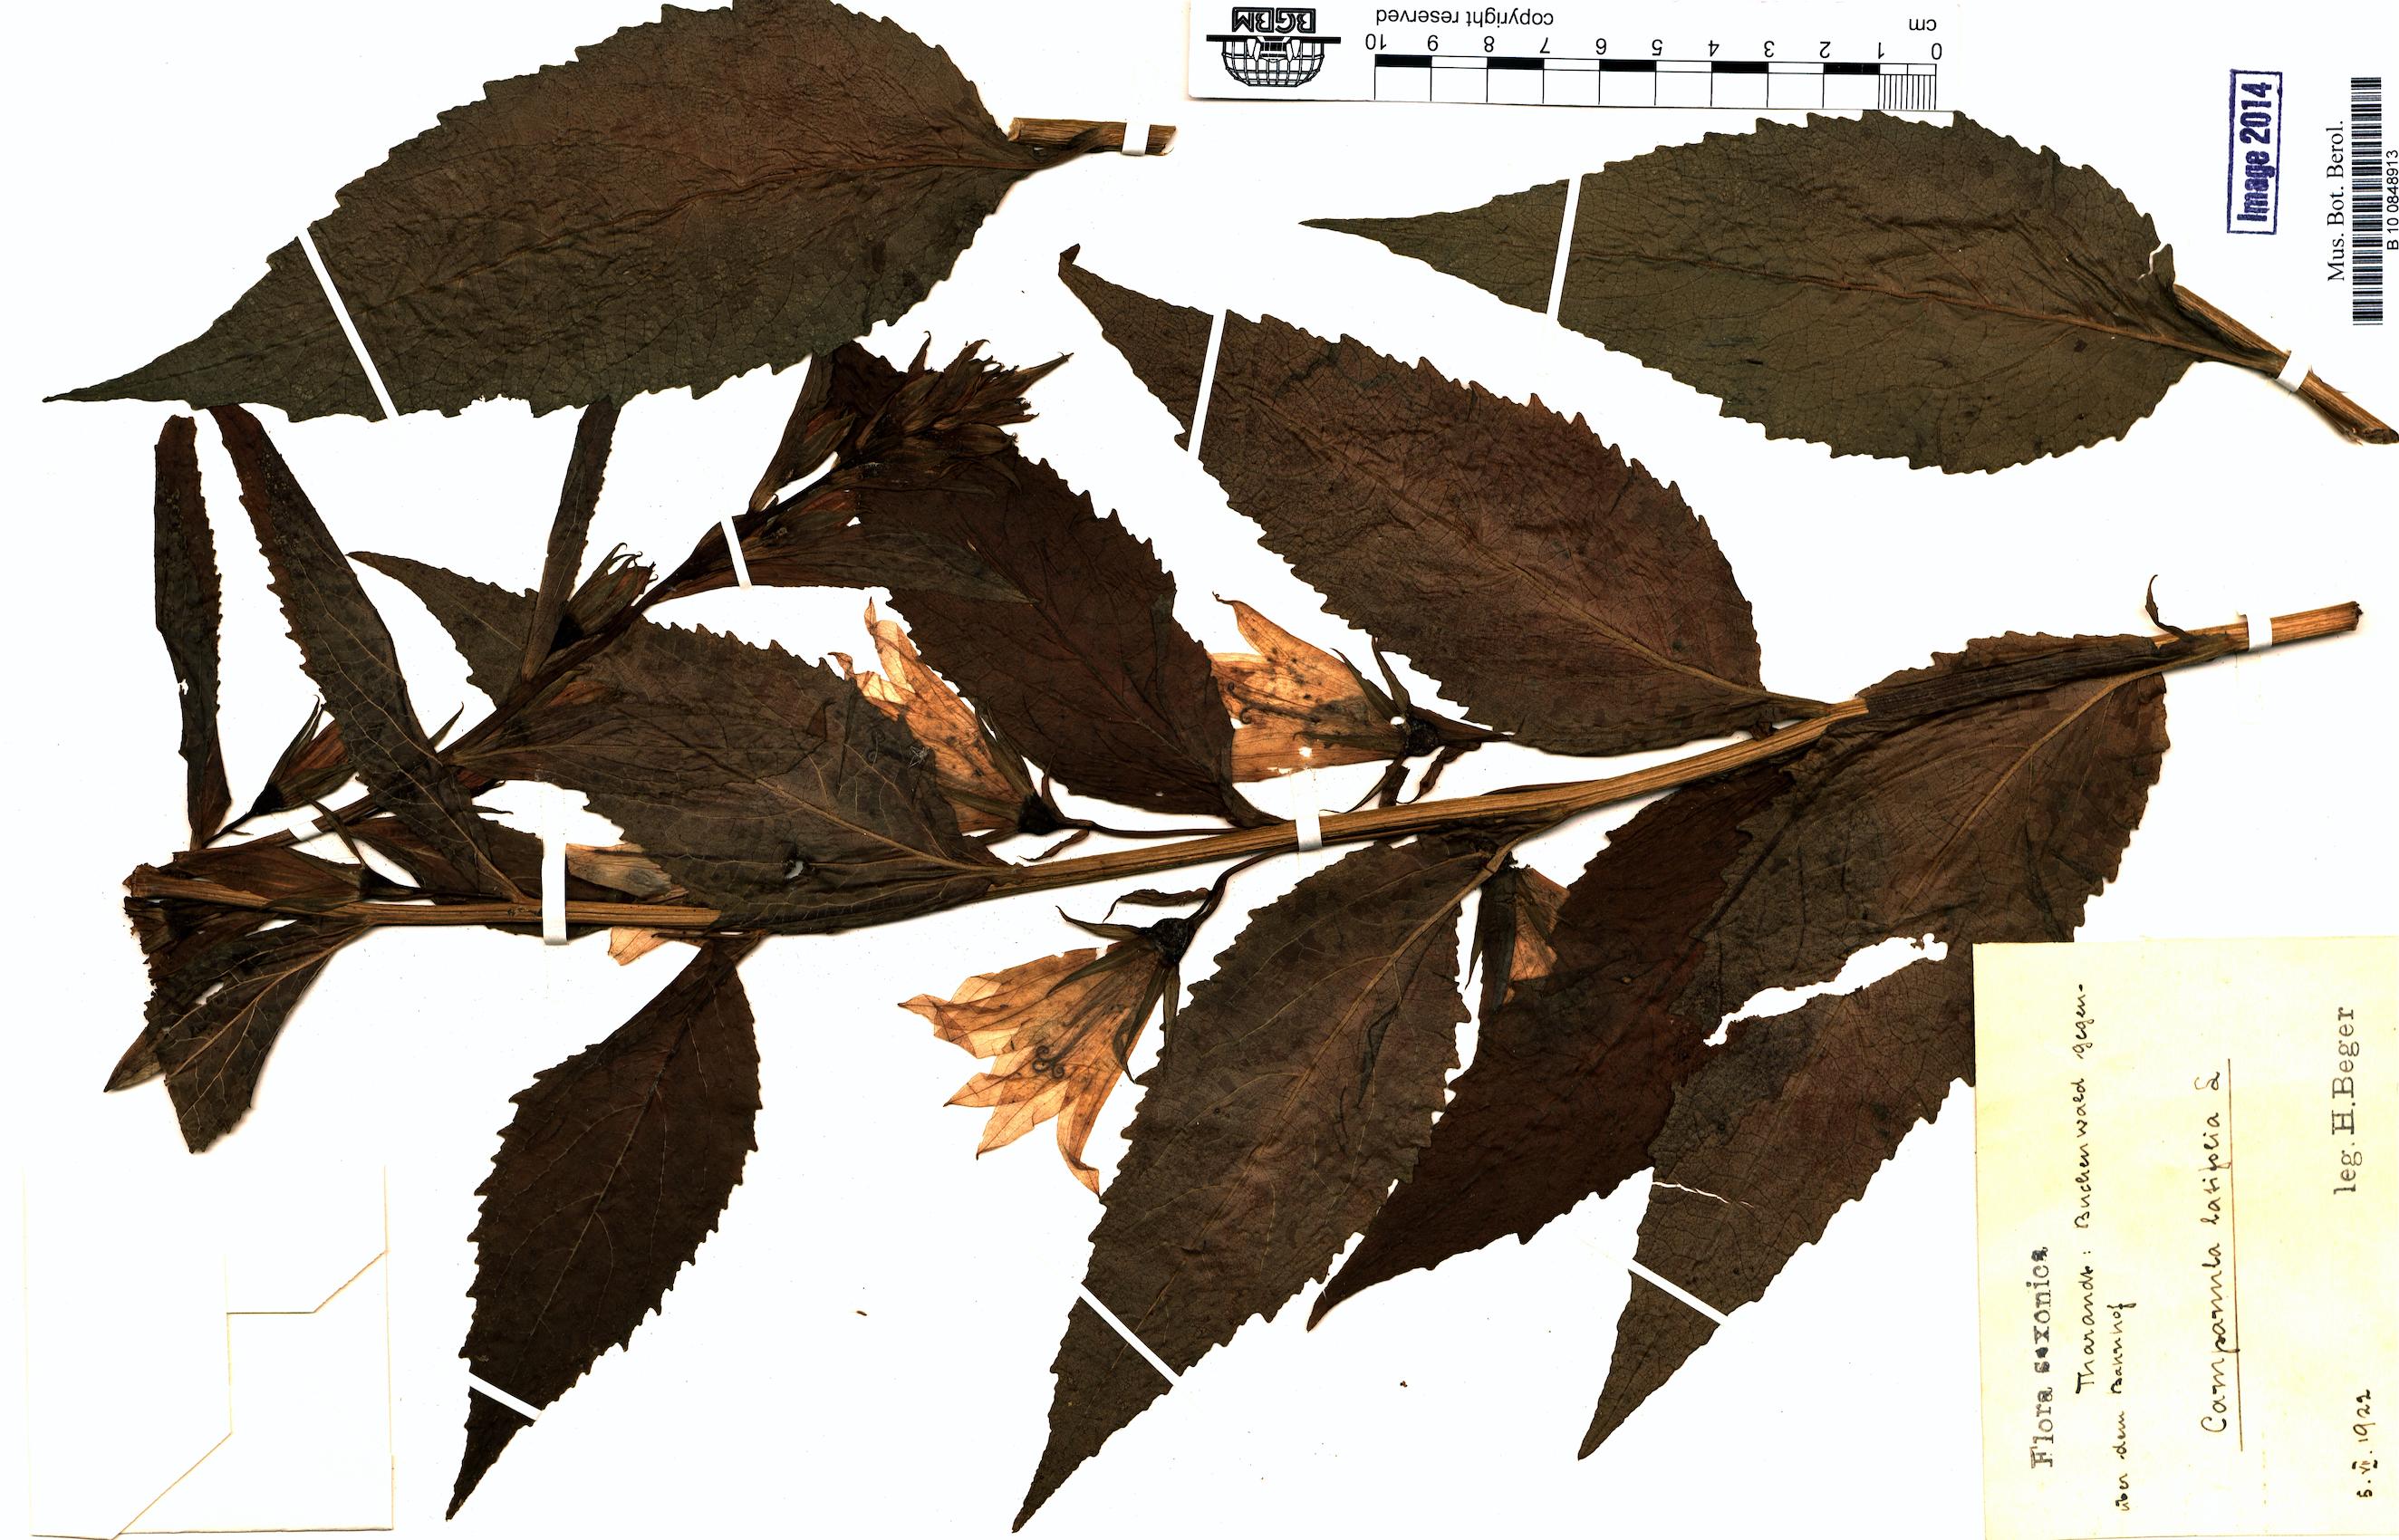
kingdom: Plantae
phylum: Tracheophyta
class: Magnoliopsida
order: Asterales
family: Campanulaceae
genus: Campanula
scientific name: Campanula latifolia
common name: Giant bellflower
